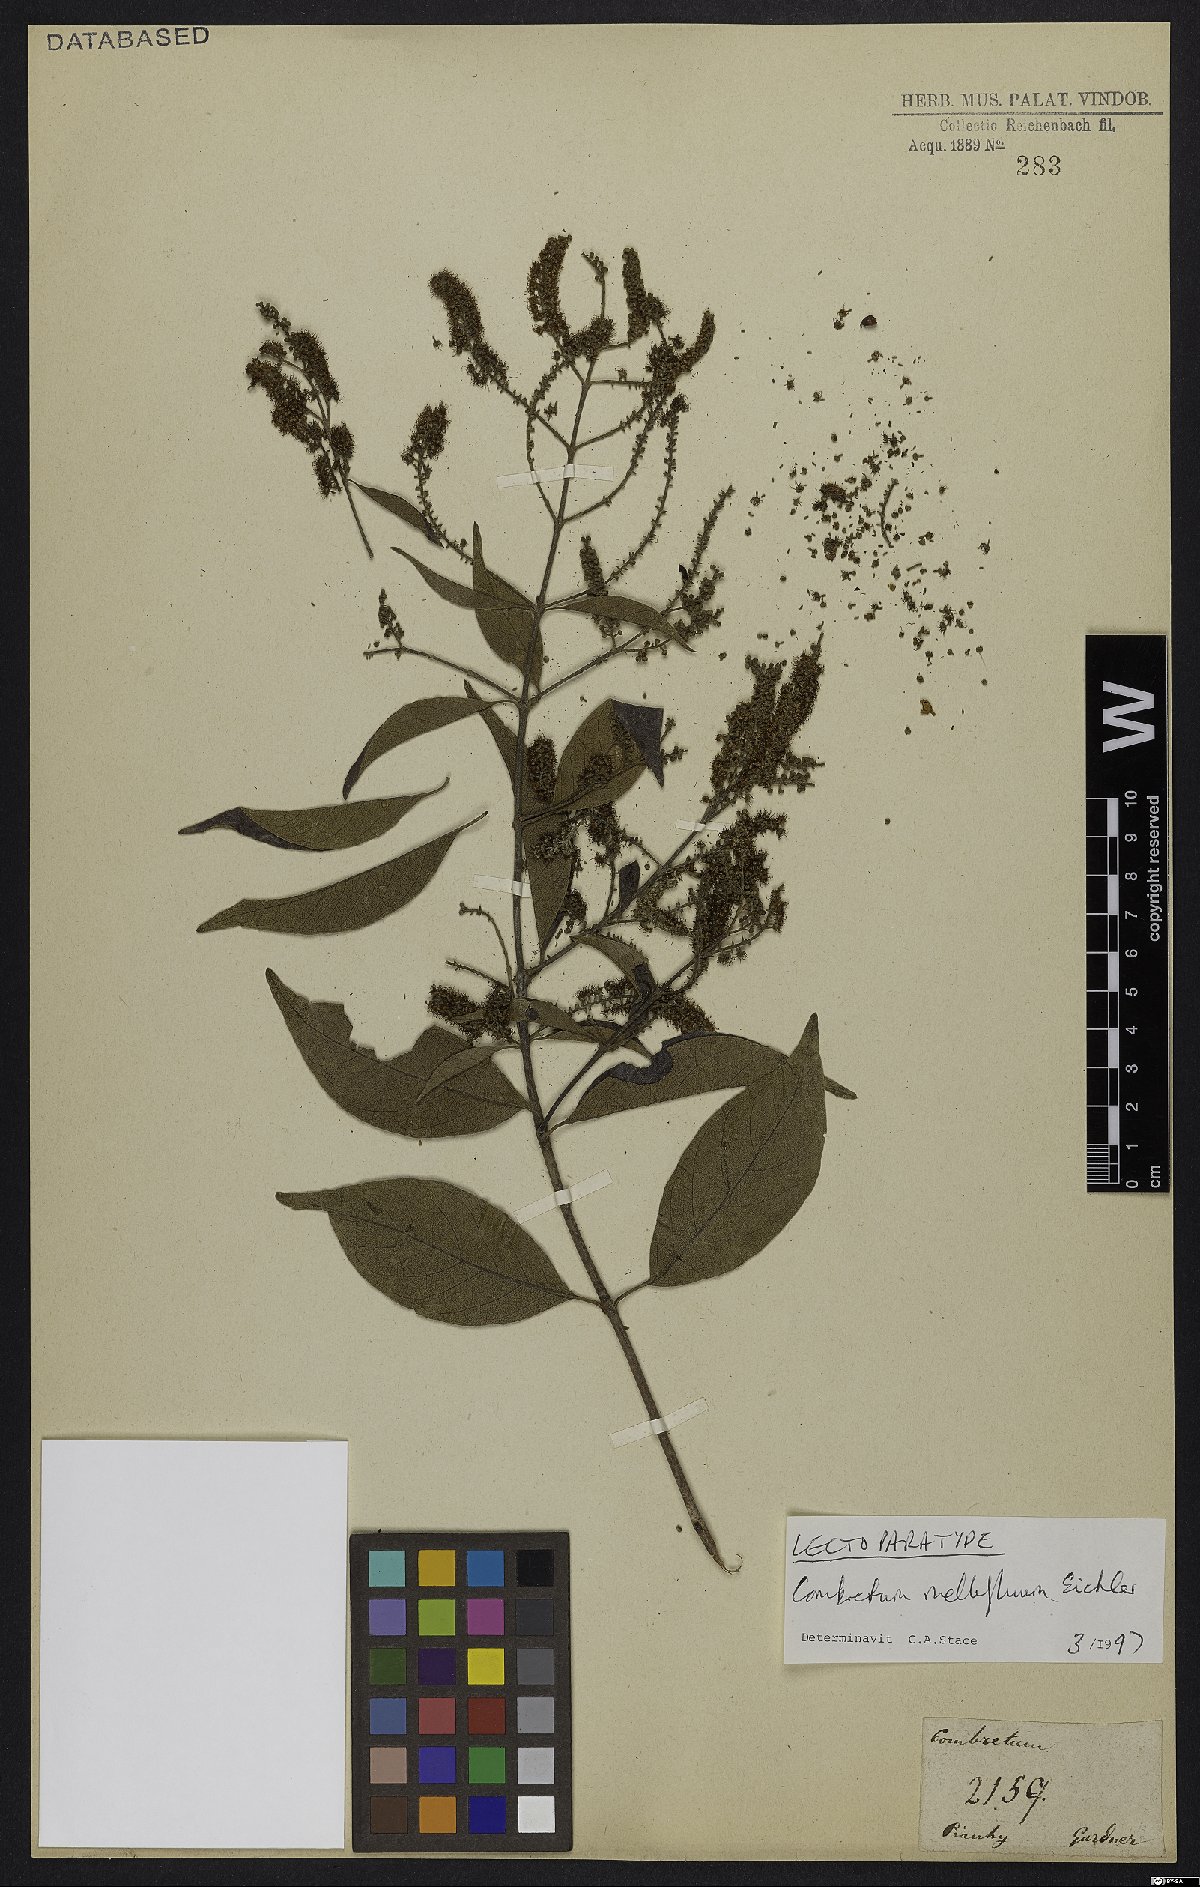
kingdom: Plantae
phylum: Tracheophyta
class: Magnoliopsida
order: Myrtales
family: Combretaceae
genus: Combretum
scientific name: Combretum mellifluum
